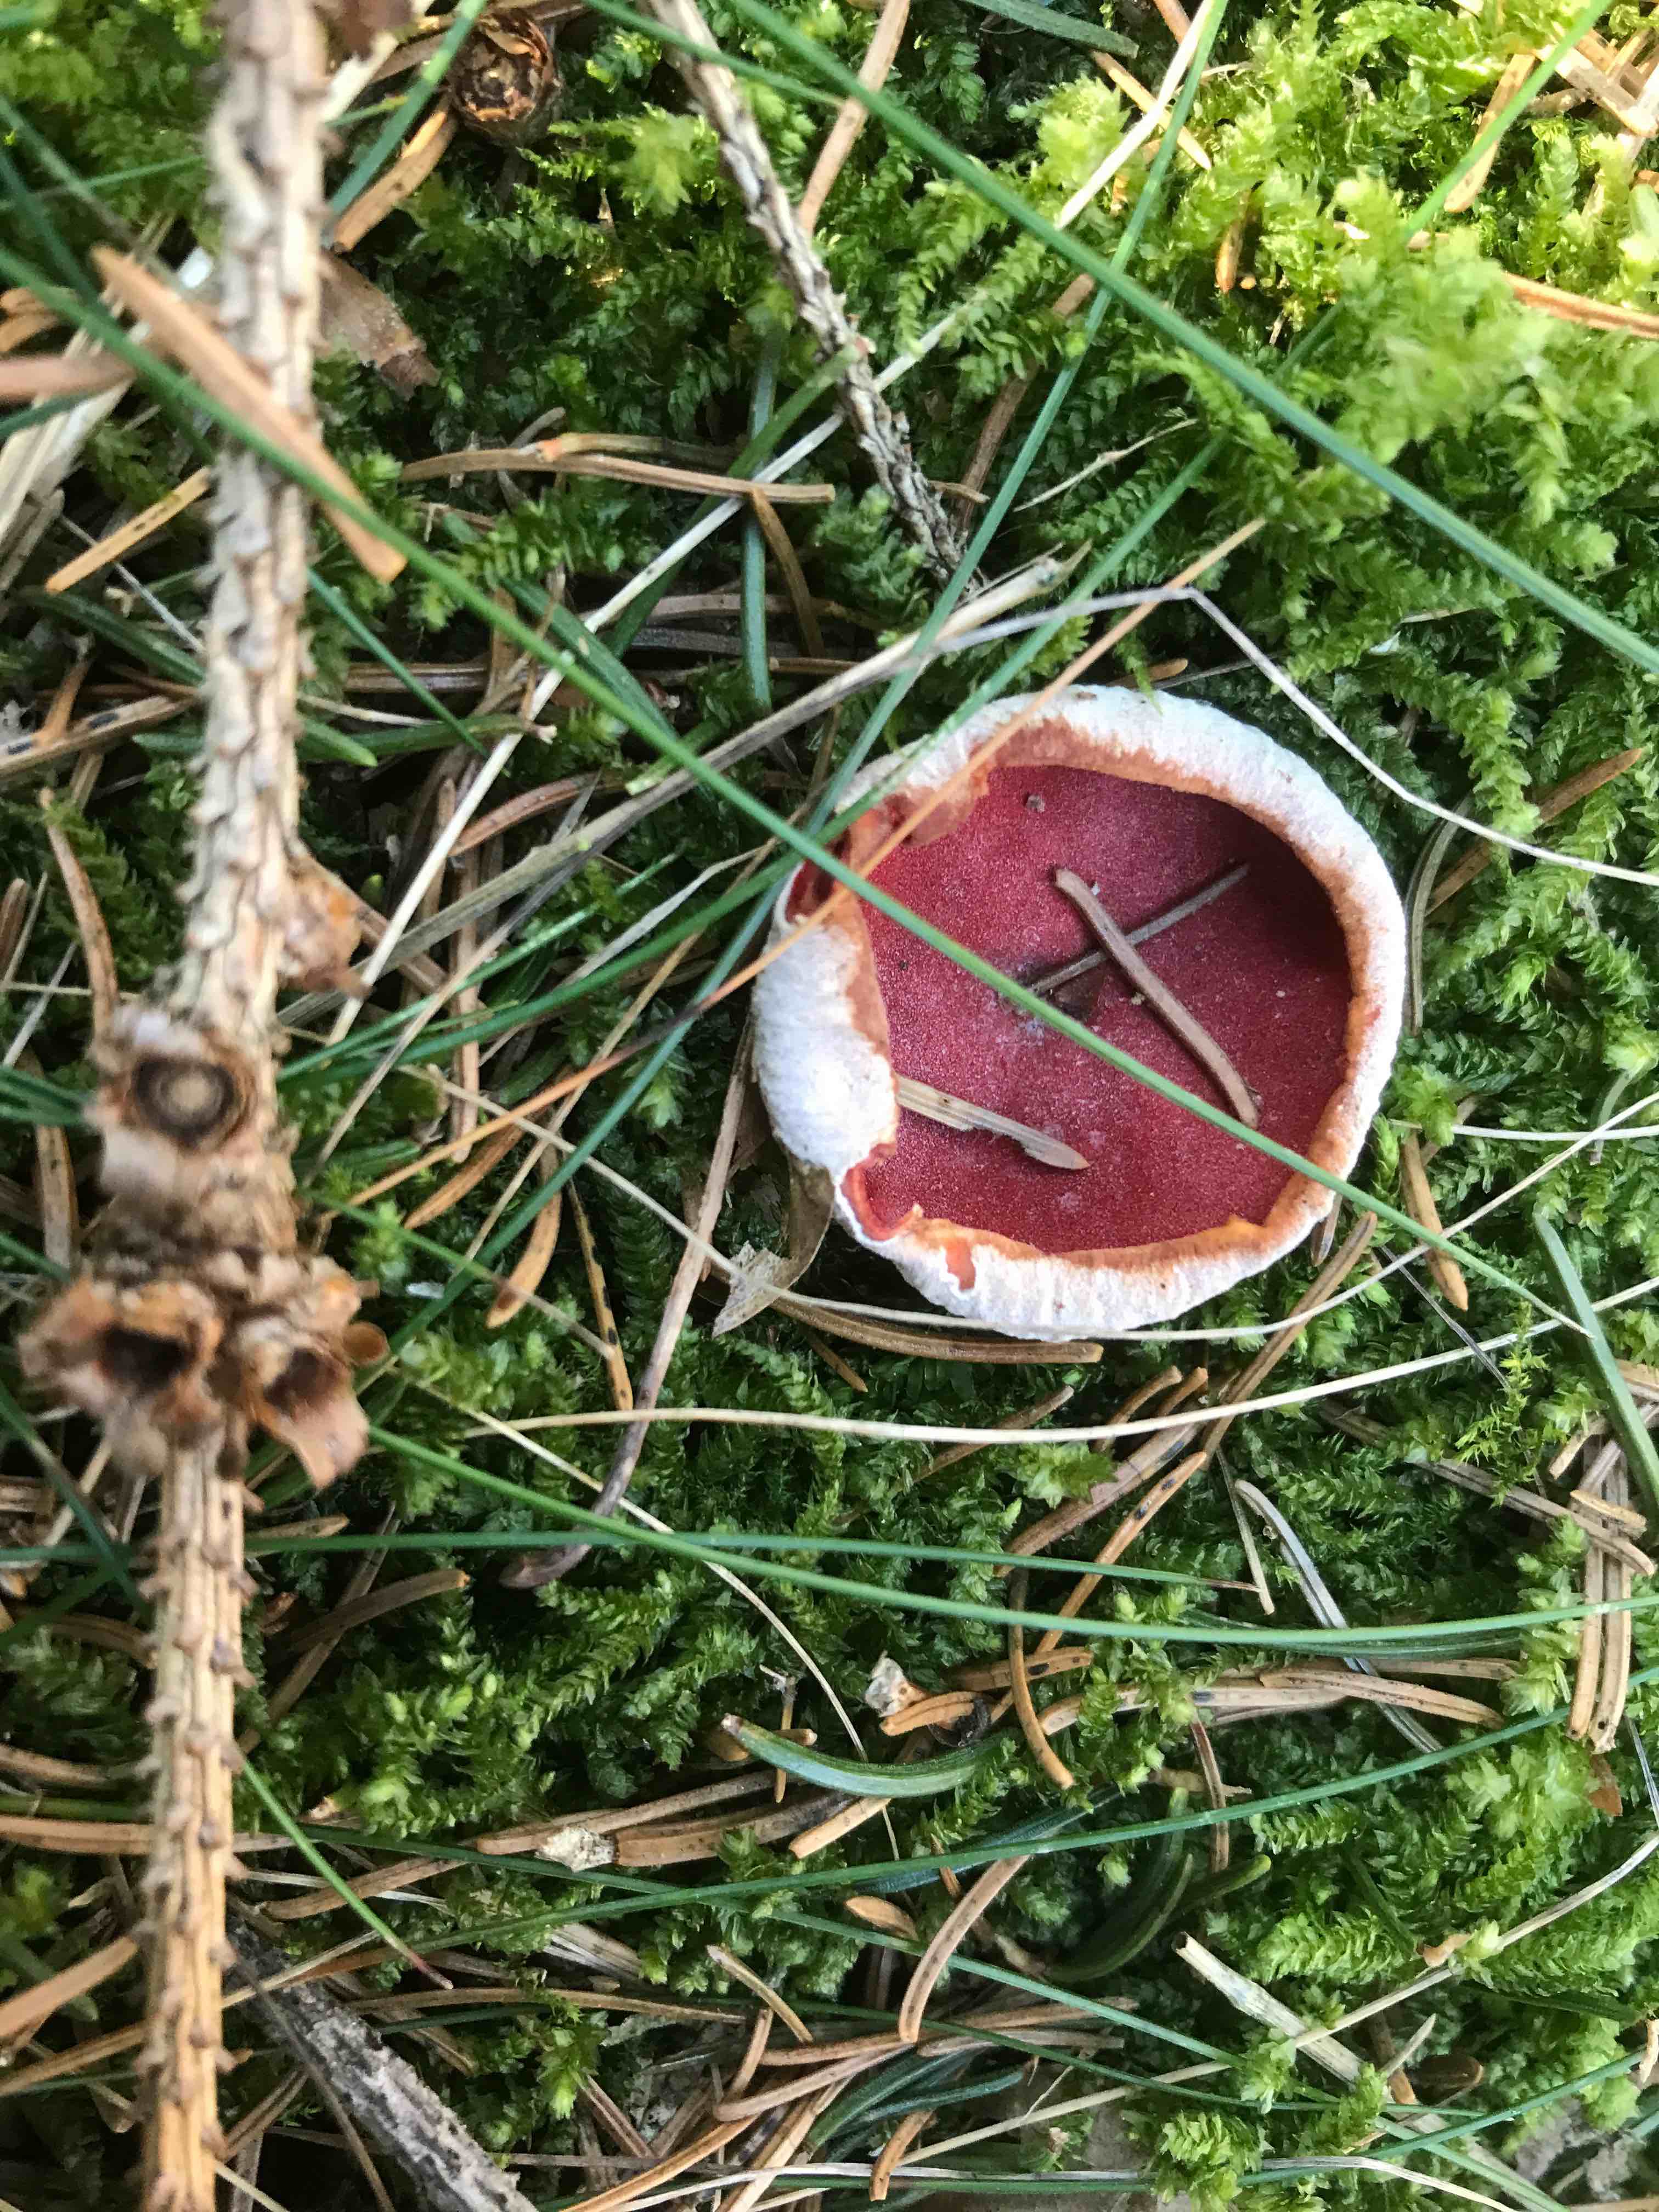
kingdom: Fungi
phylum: Ascomycota
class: Pezizomycetes
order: Pezizales
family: Sarcoscyphaceae
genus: Sarcoscypha
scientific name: Sarcoscypha austriaca
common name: krølhåret pragtbæger
